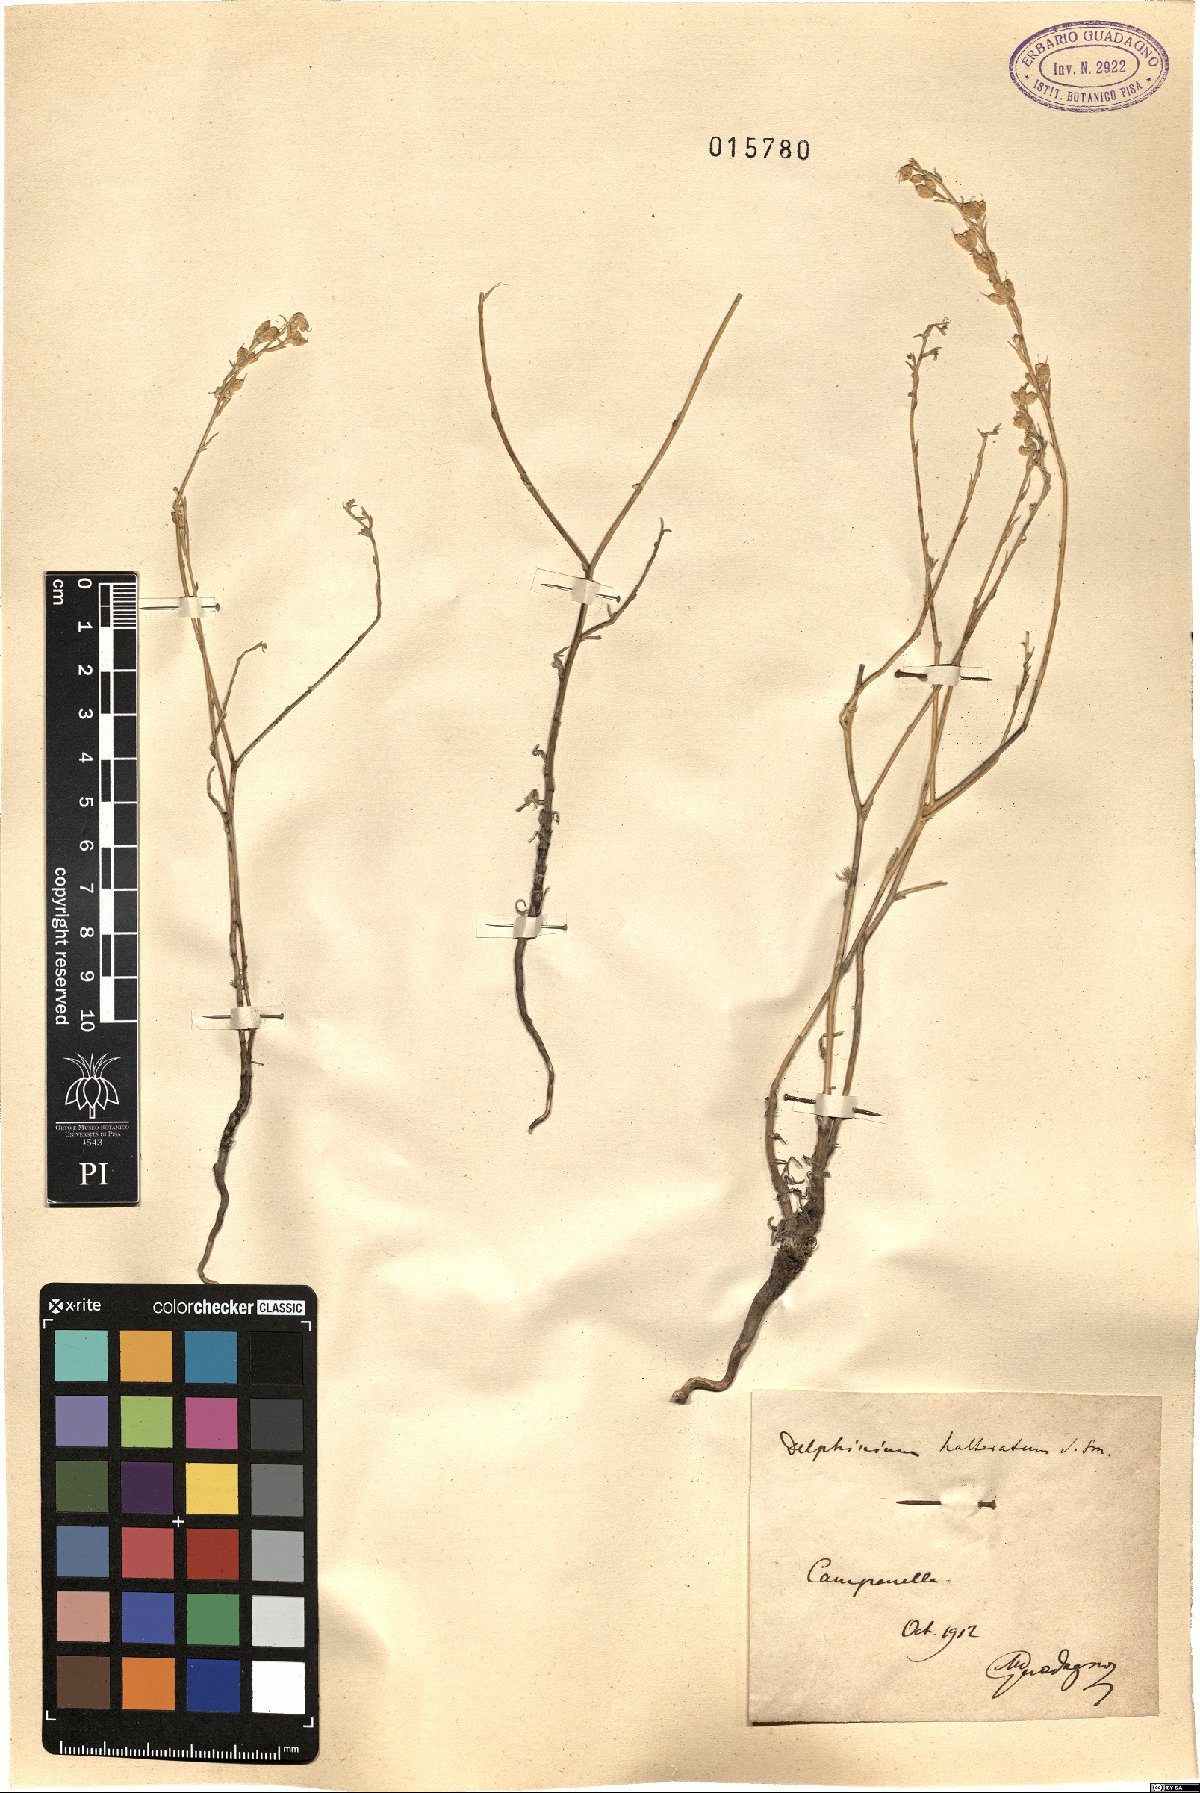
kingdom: Plantae
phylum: Tracheophyta
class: Magnoliopsida
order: Ranunculales
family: Ranunculaceae
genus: Delphinium
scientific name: Delphinium halteratum
